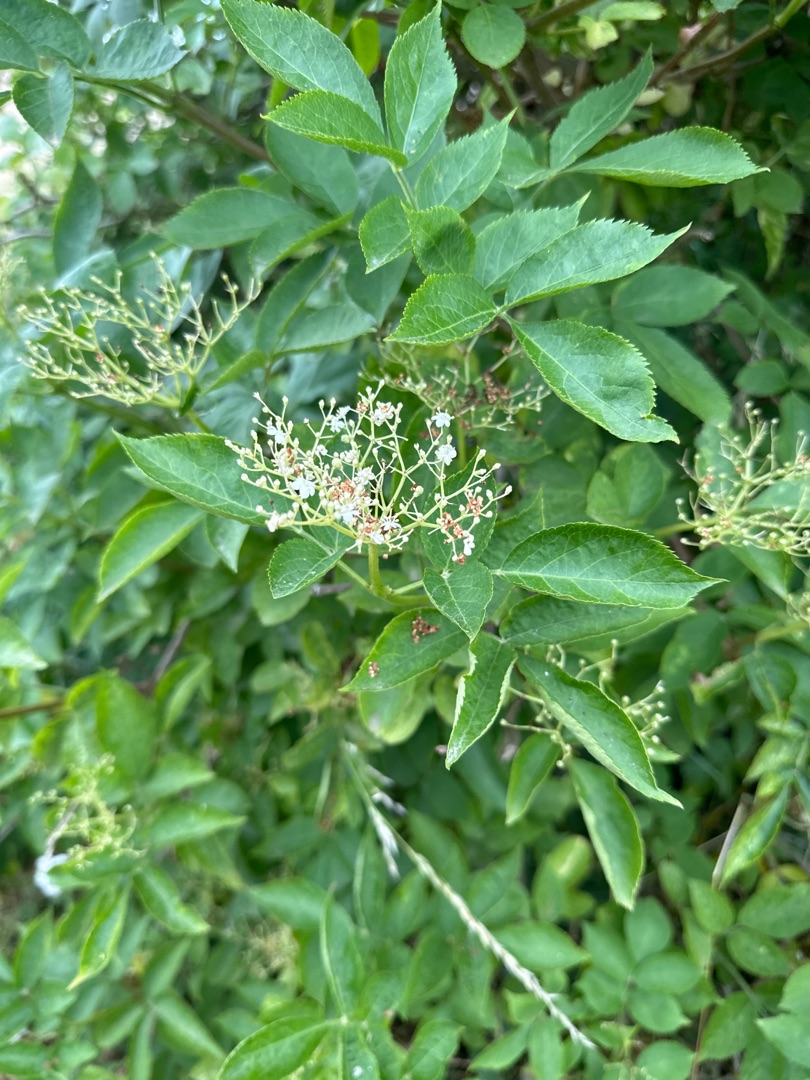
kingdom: Plantae
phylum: Tracheophyta
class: Magnoliopsida
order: Dipsacales
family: Viburnaceae
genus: Sambucus
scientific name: Sambucus nigra
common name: Almindelig hyld
